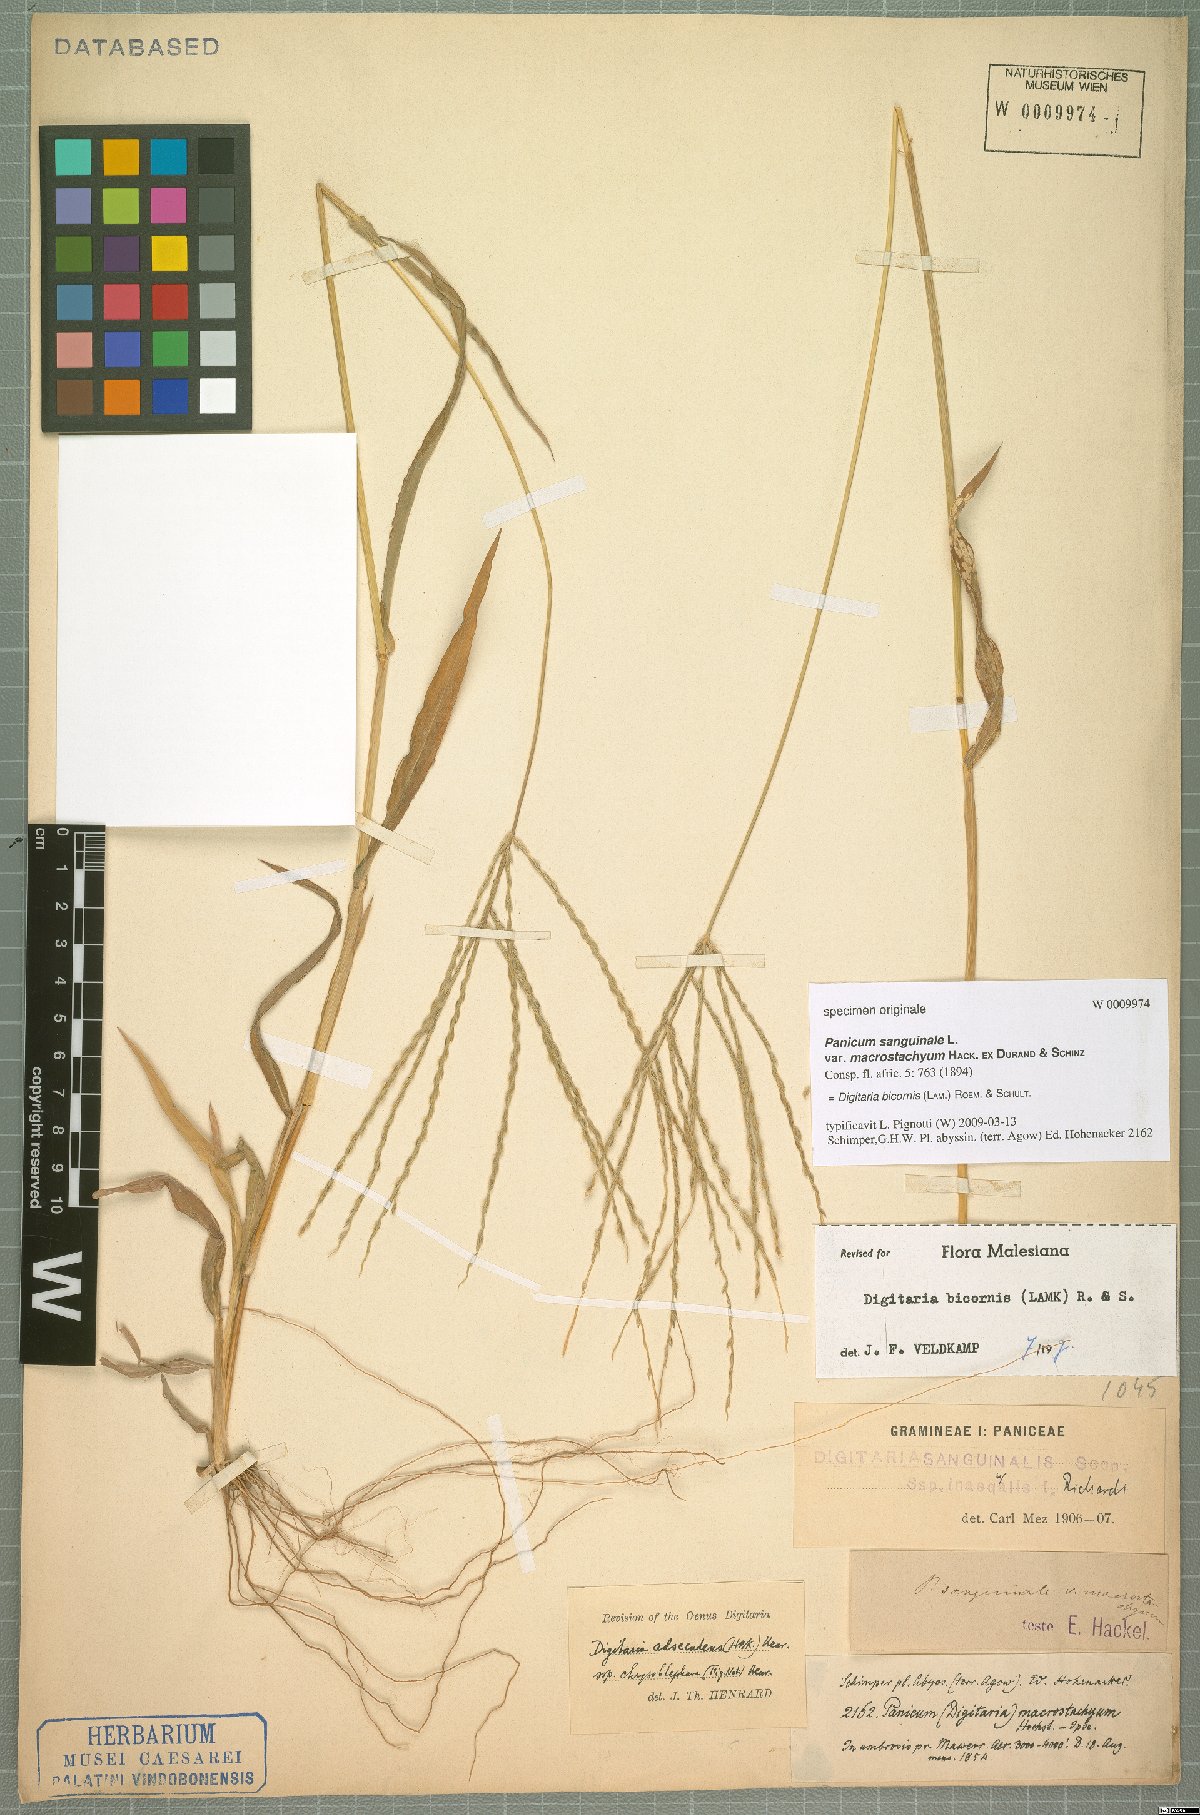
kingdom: Plantae
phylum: Tracheophyta
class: Liliopsida
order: Poales
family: Poaceae
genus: Digitaria
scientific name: Digitaria bicornis
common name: Asian crabgrass
